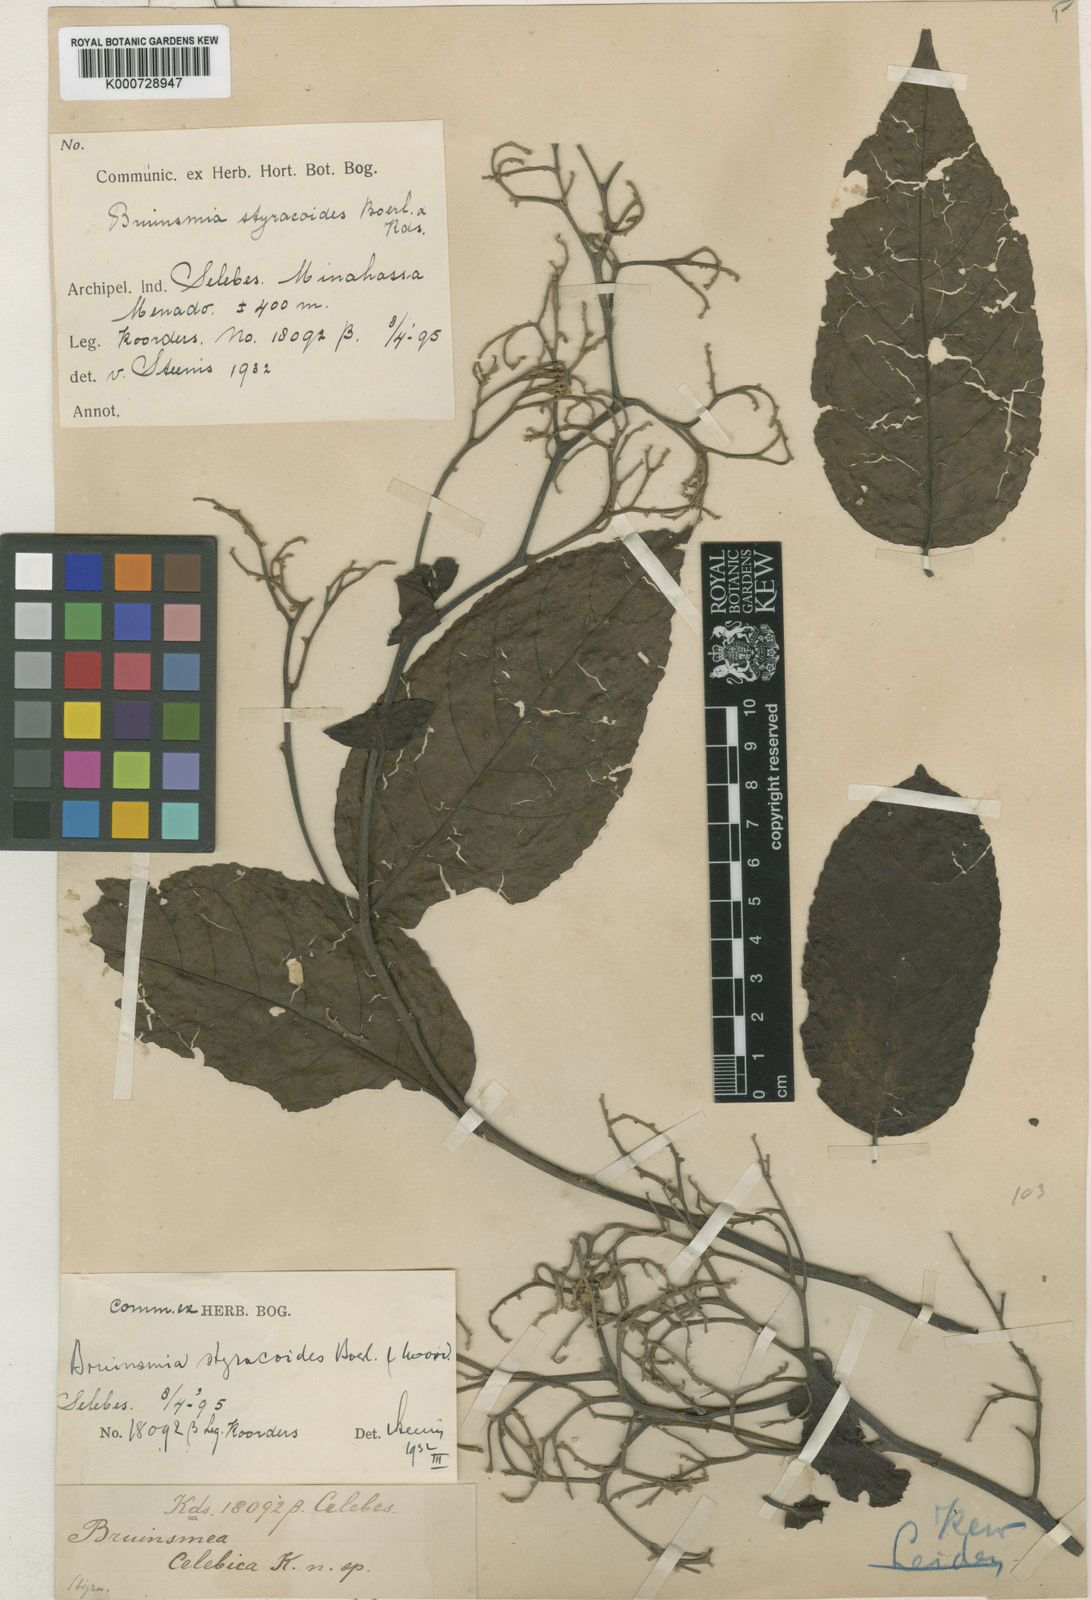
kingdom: Plantae
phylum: Tracheophyta
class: Magnoliopsida
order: Ericales
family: Styracaceae
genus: Bruinsmia
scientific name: Bruinsmia styracoides
